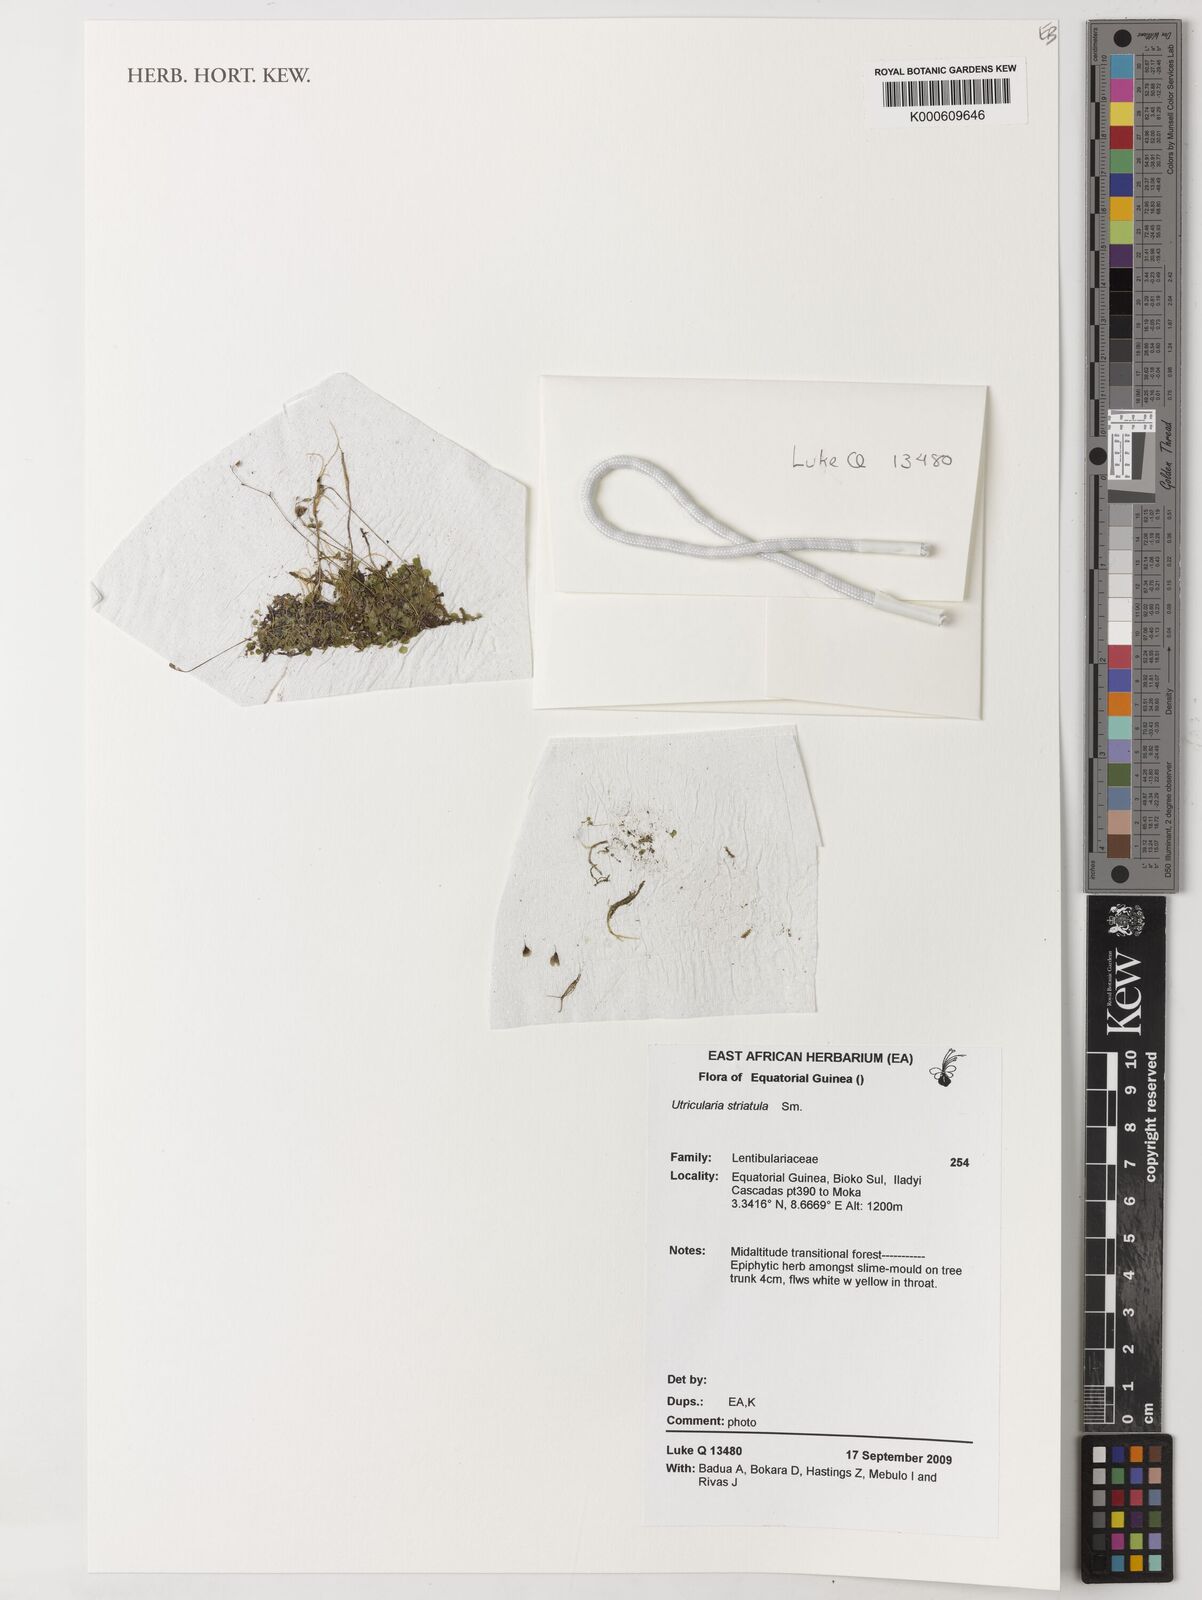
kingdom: Plantae
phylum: Tracheophyta
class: Magnoliopsida
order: Lamiales
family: Lentibulariaceae
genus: Utricularia
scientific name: Utricularia striatula
